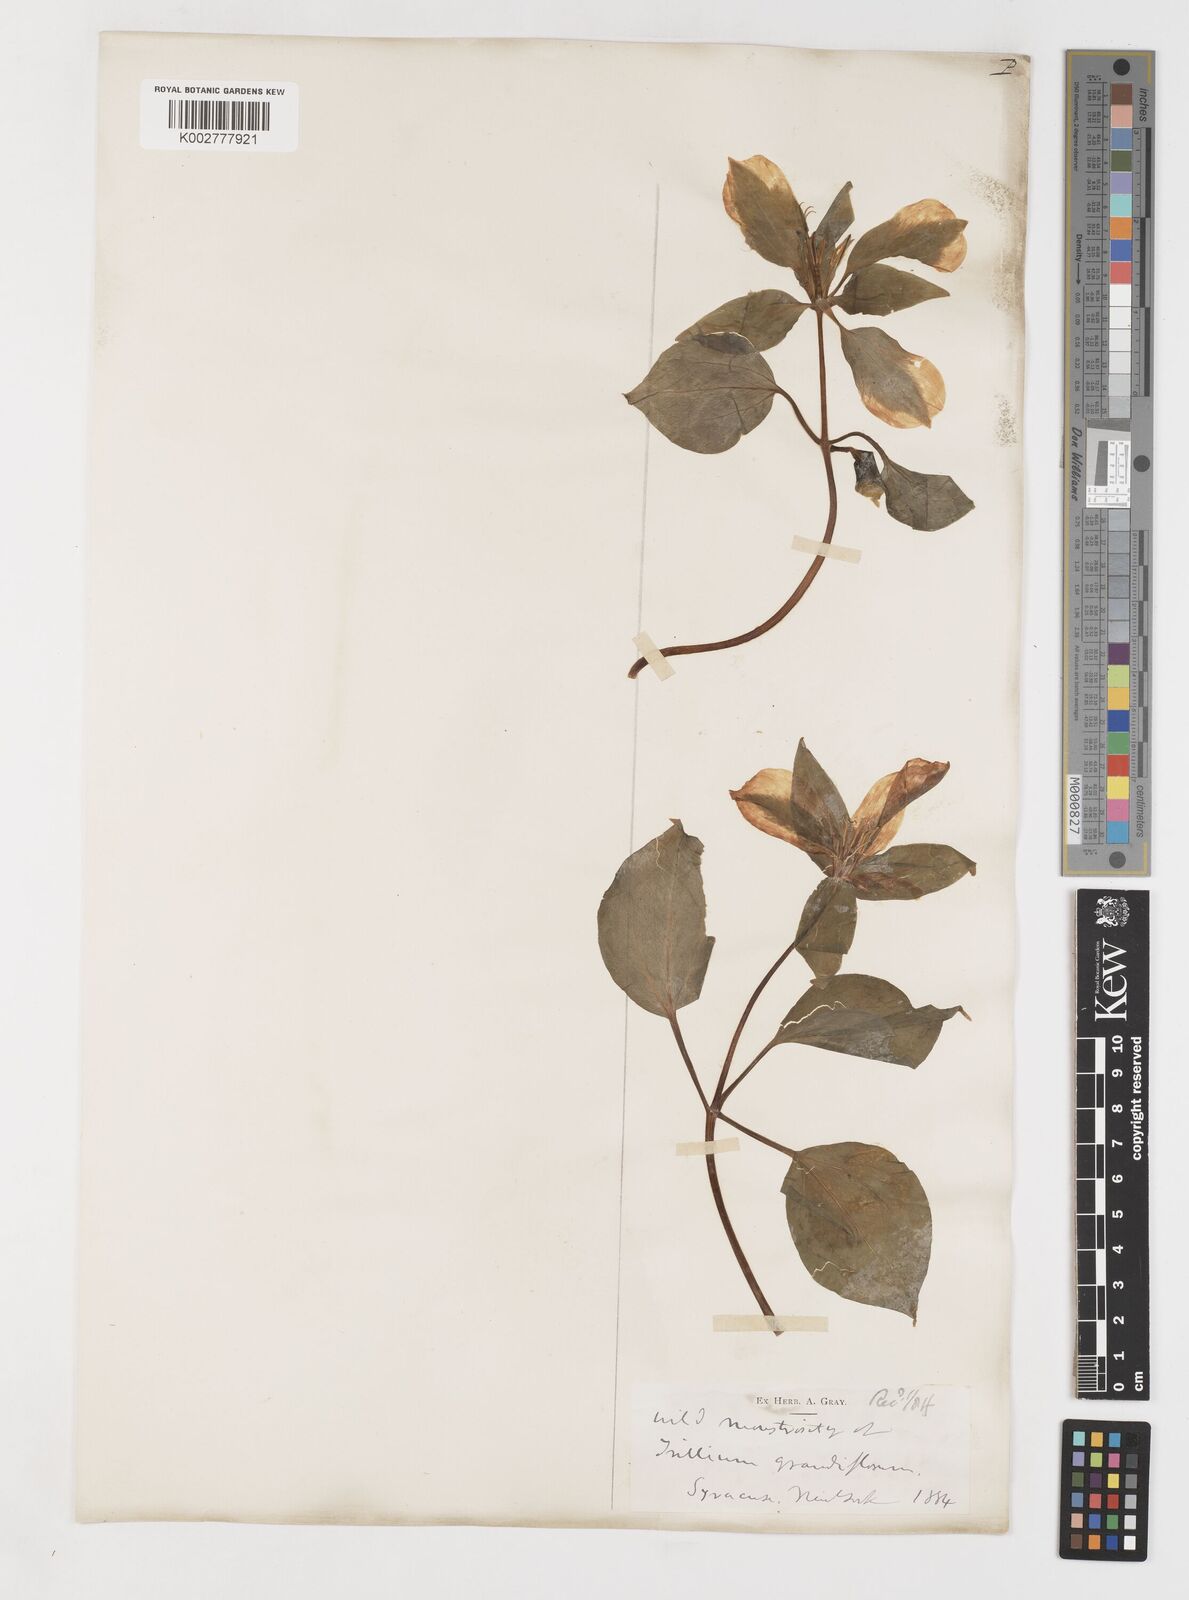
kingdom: Plantae
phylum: Tracheophyta
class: Liliopsida
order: Liliales
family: Melanthiaceae
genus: Trillium
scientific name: Trillium grandiflorum
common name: Great white trillium
